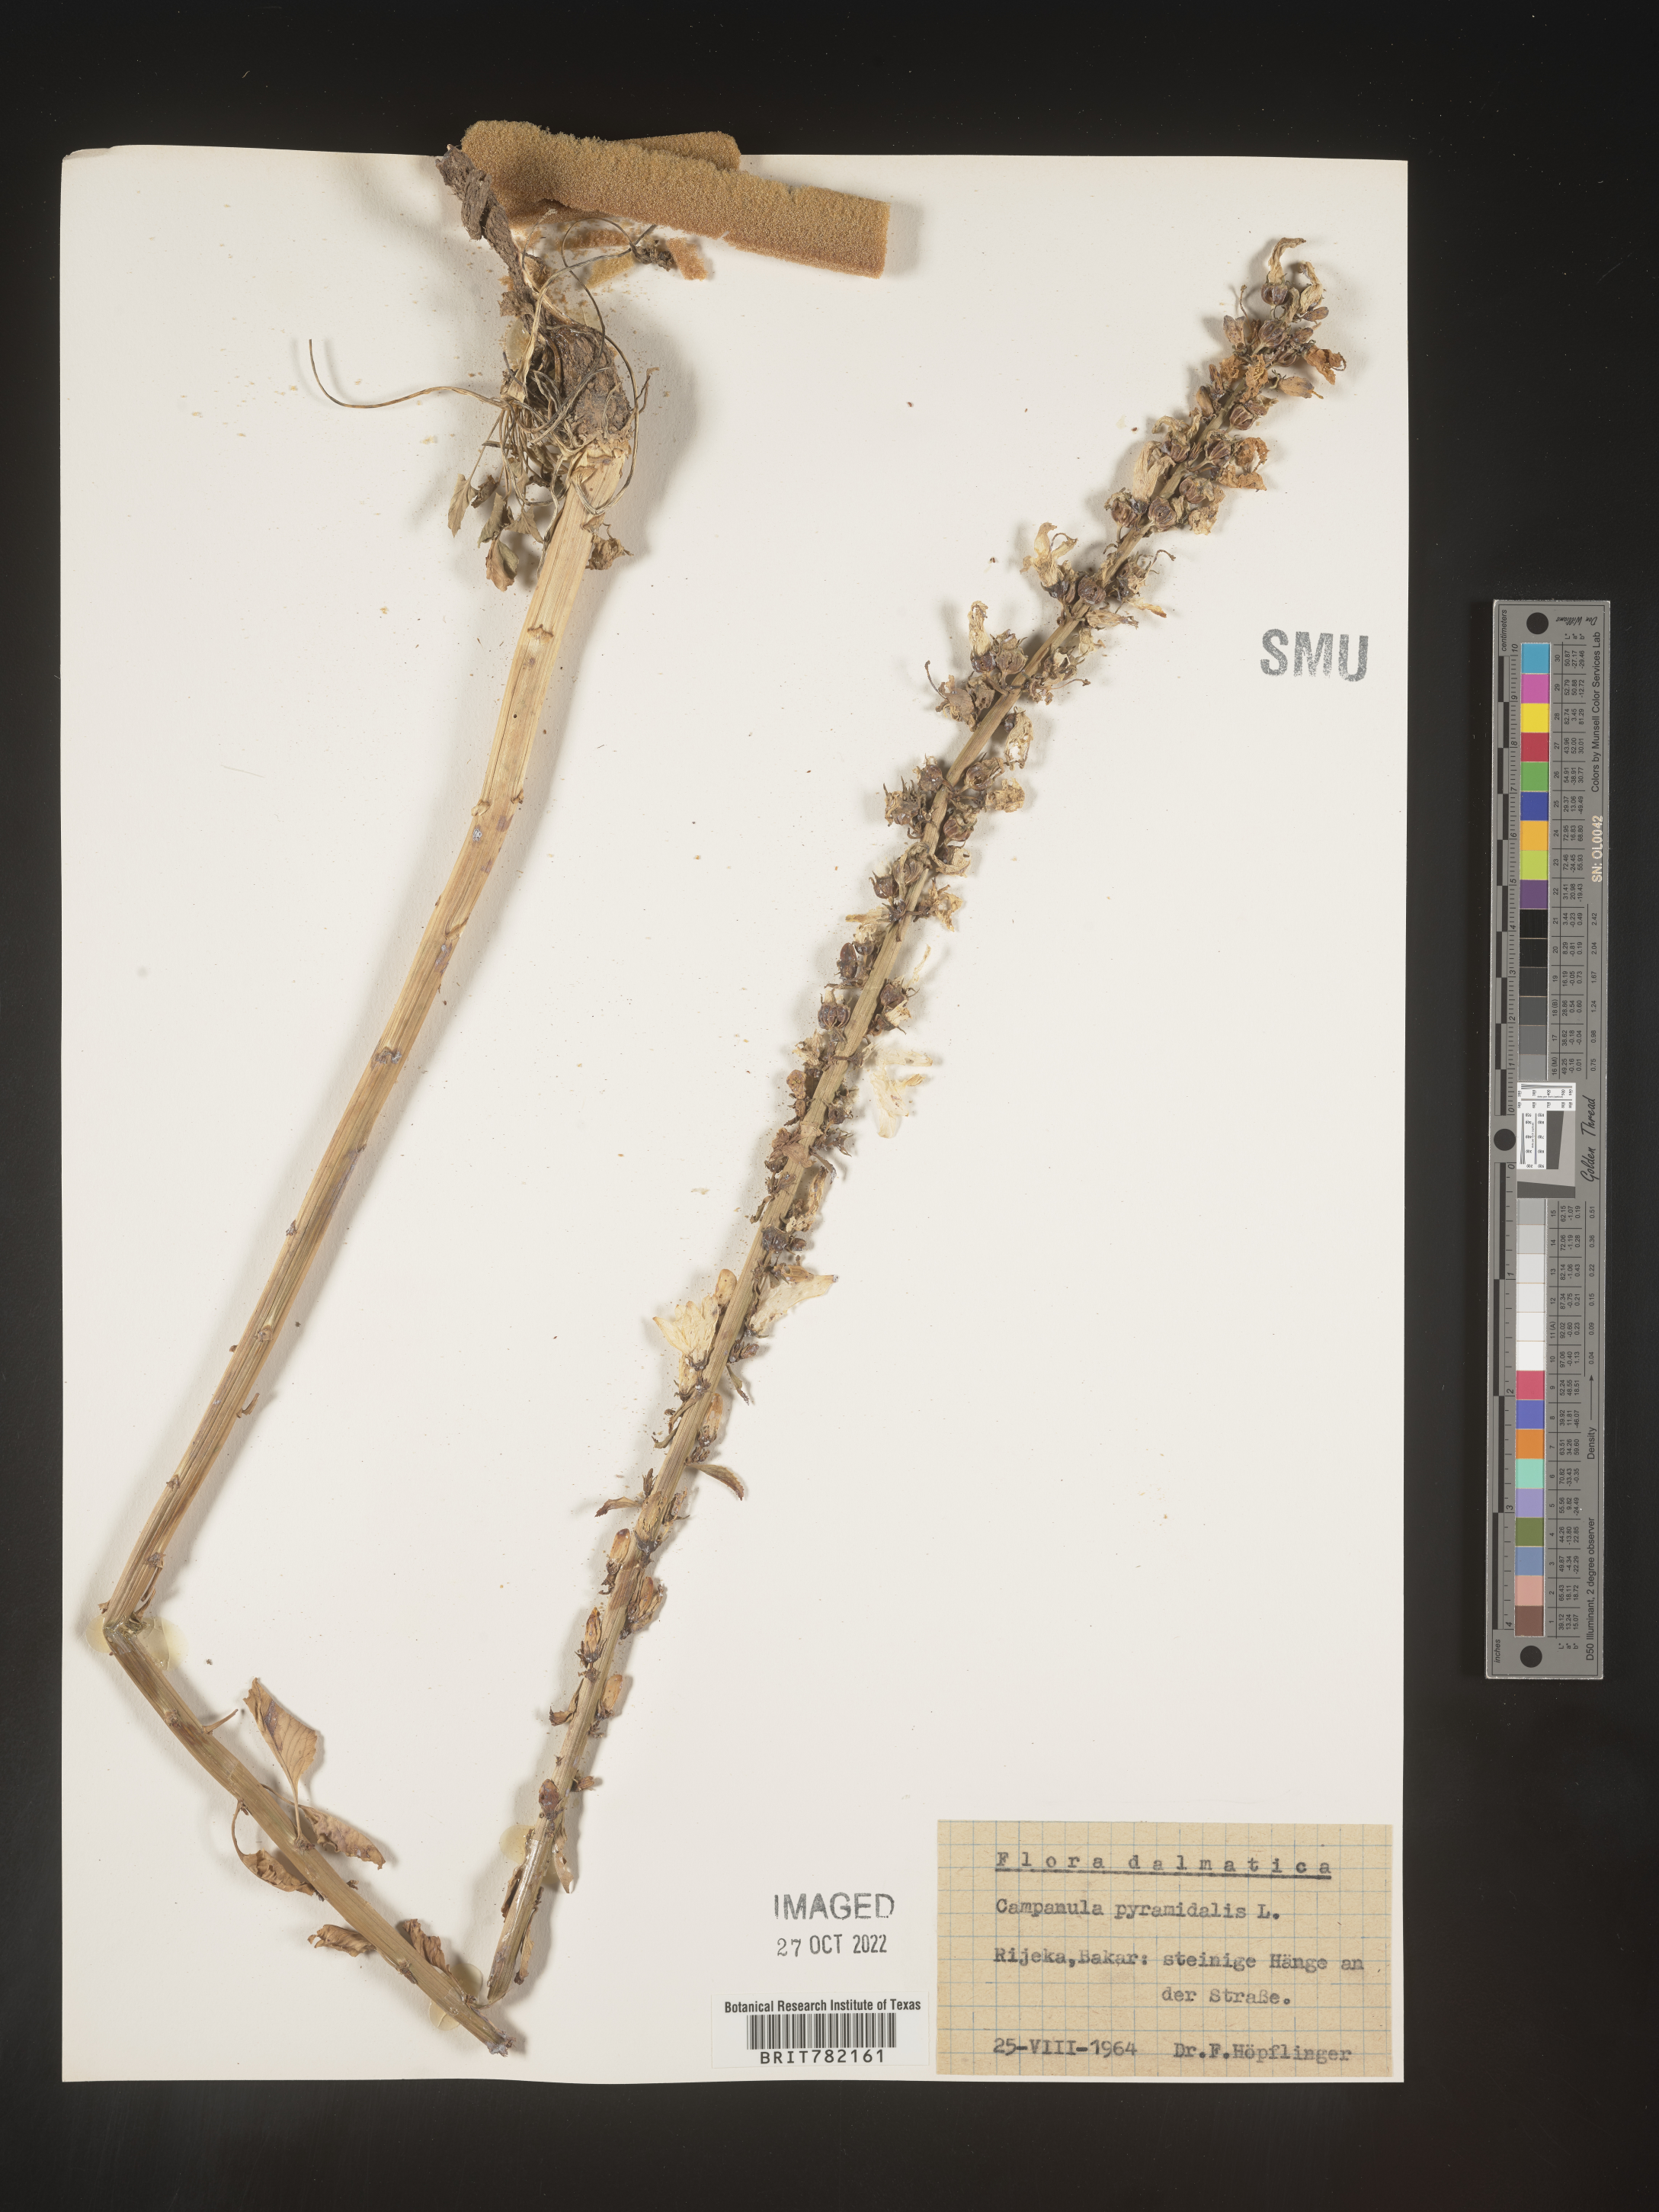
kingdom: Plantae
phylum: Tracheophyta
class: Magnoliopsida
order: Asterales
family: Campanulaceae
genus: Campanula
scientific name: Campanula
